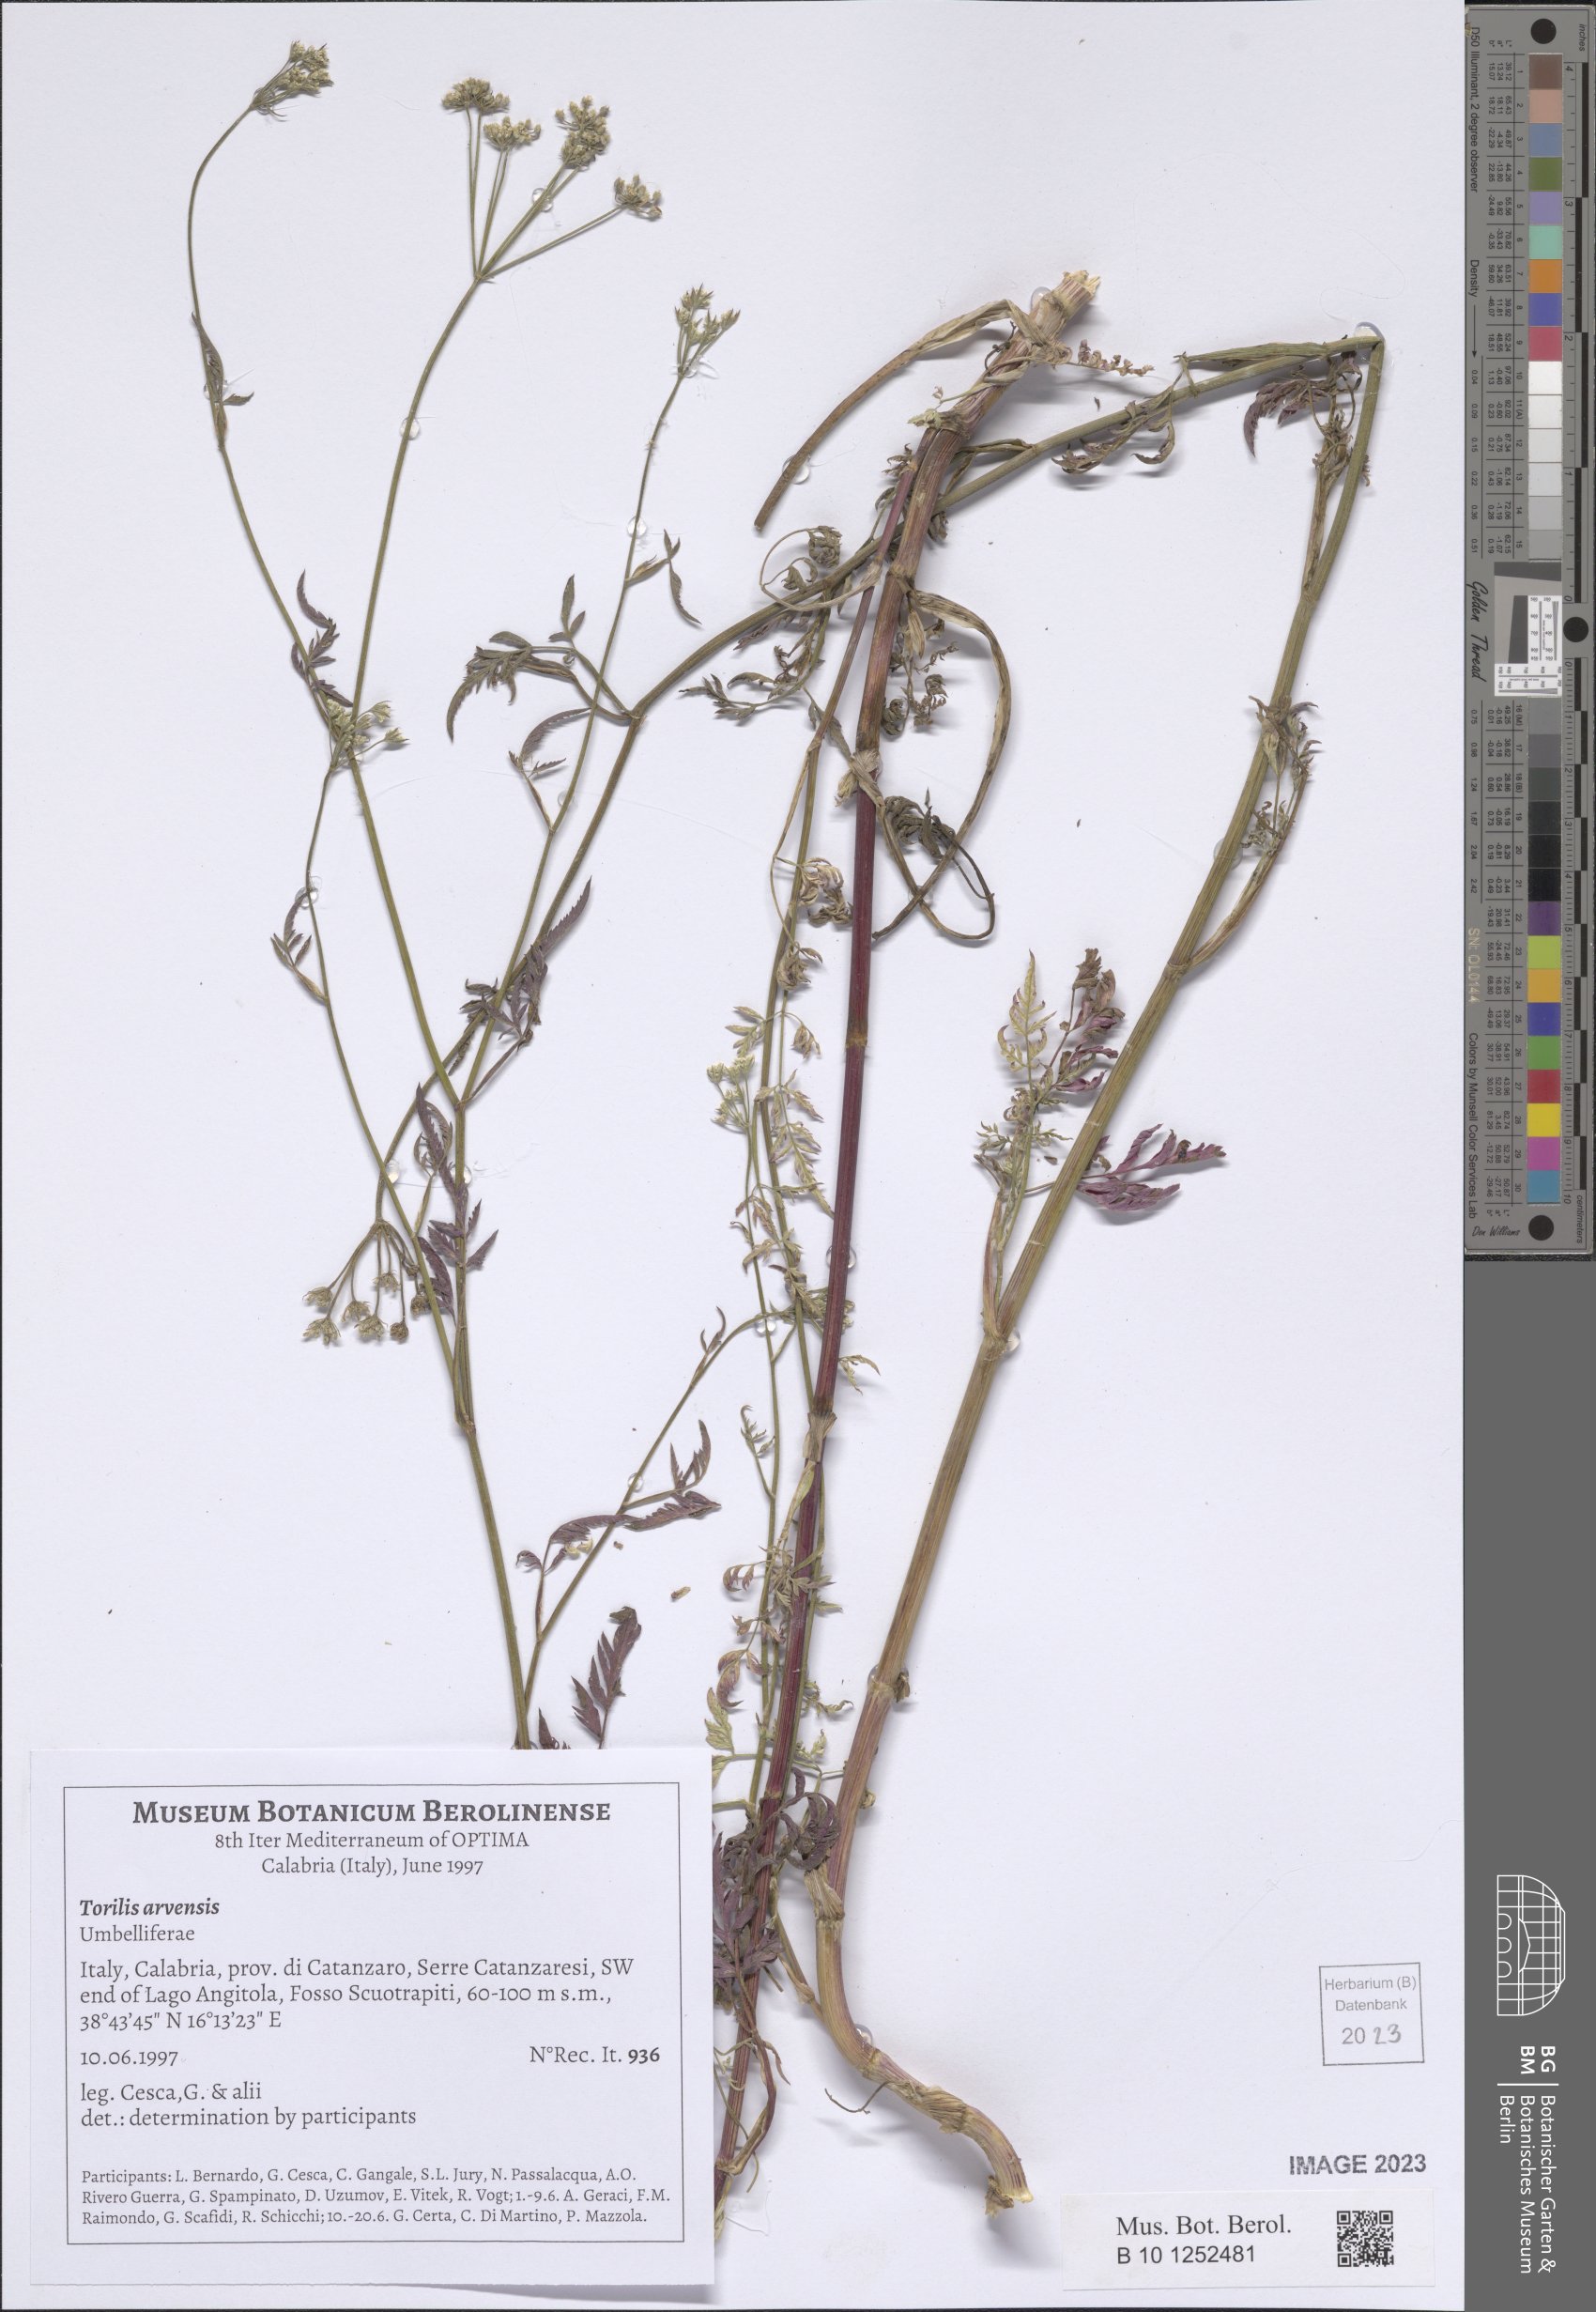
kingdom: Plantae
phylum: Tracheophyta
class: Magnoliopsida
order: Apiales
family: Apiaceae
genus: Torilis
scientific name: Torilis arvensis
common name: Spreading hedge-parsley
